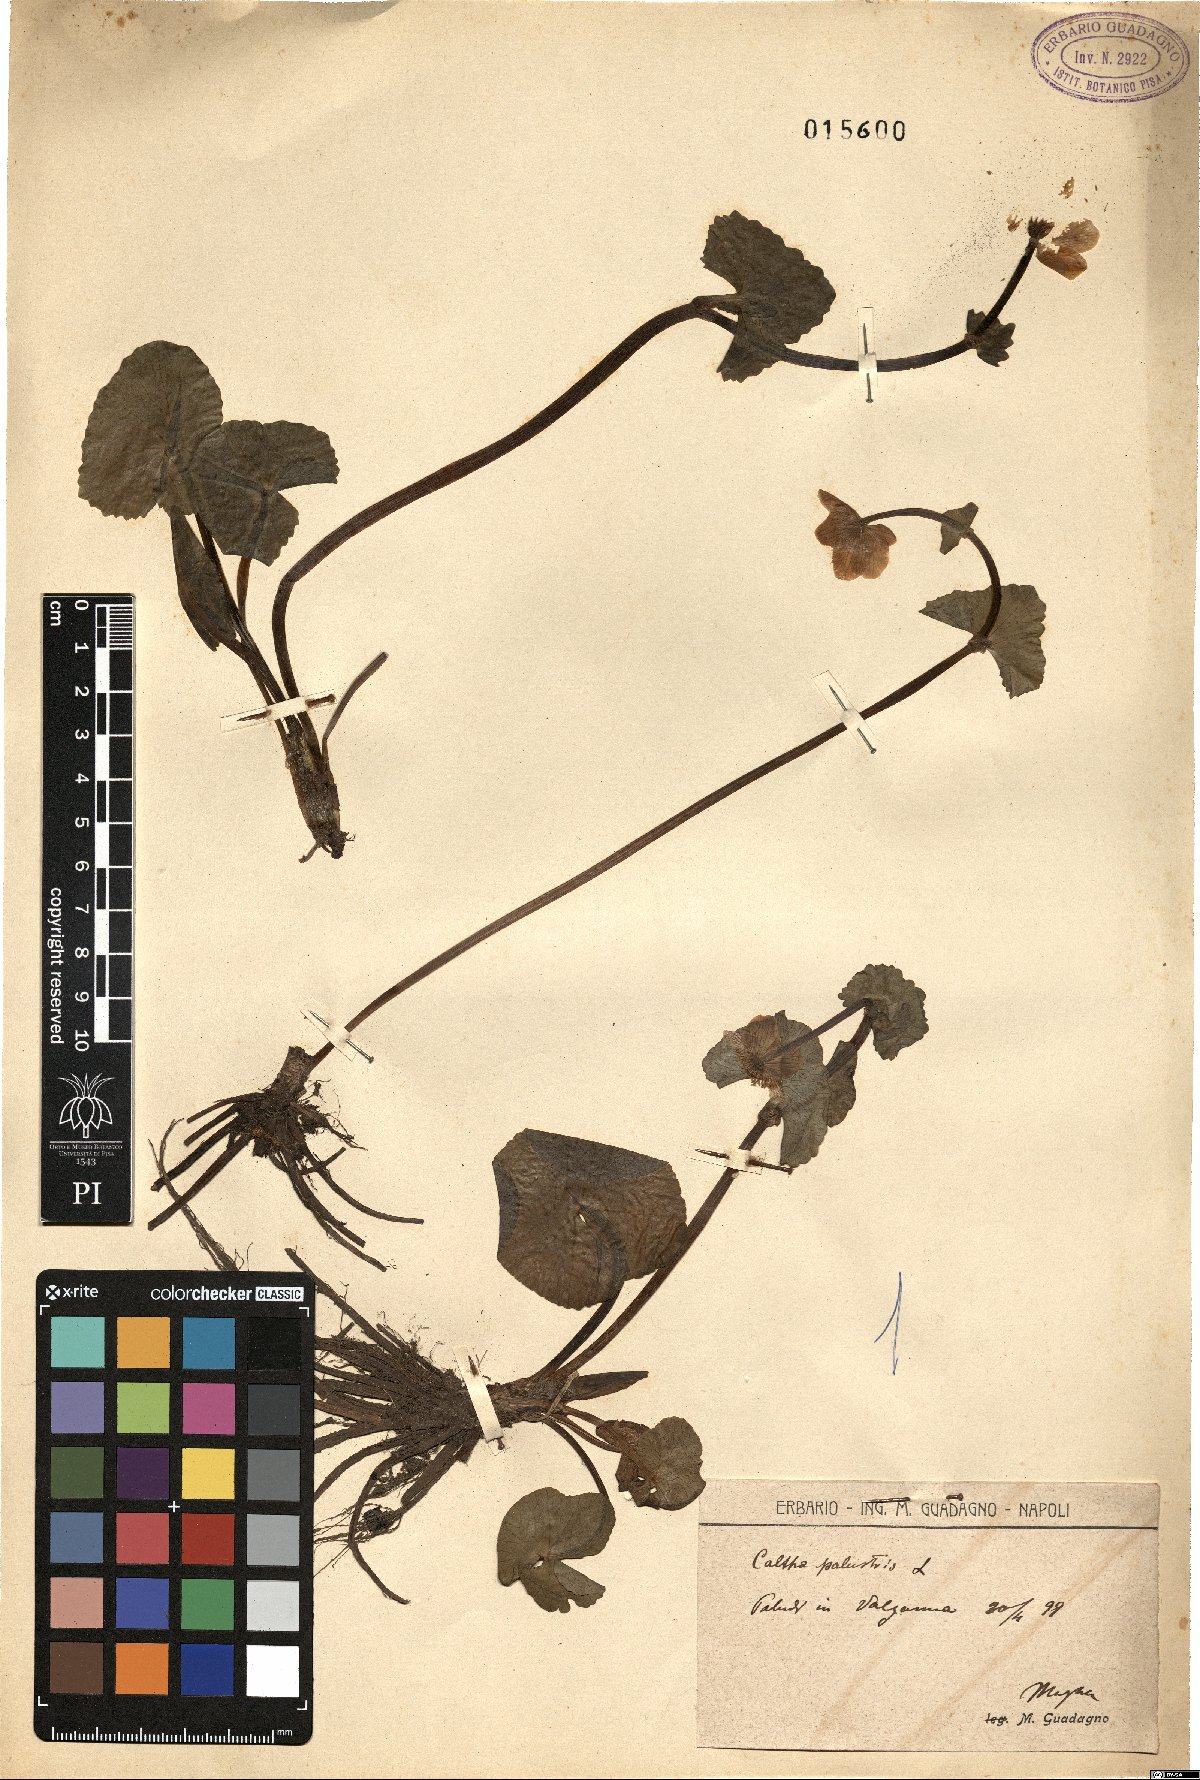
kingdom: Plantae
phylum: Tracheophyta
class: Magnoliopsida
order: Ranunculales
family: Ranunculaceae
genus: Caltha
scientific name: Caltha palustris
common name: Marsh marigold
